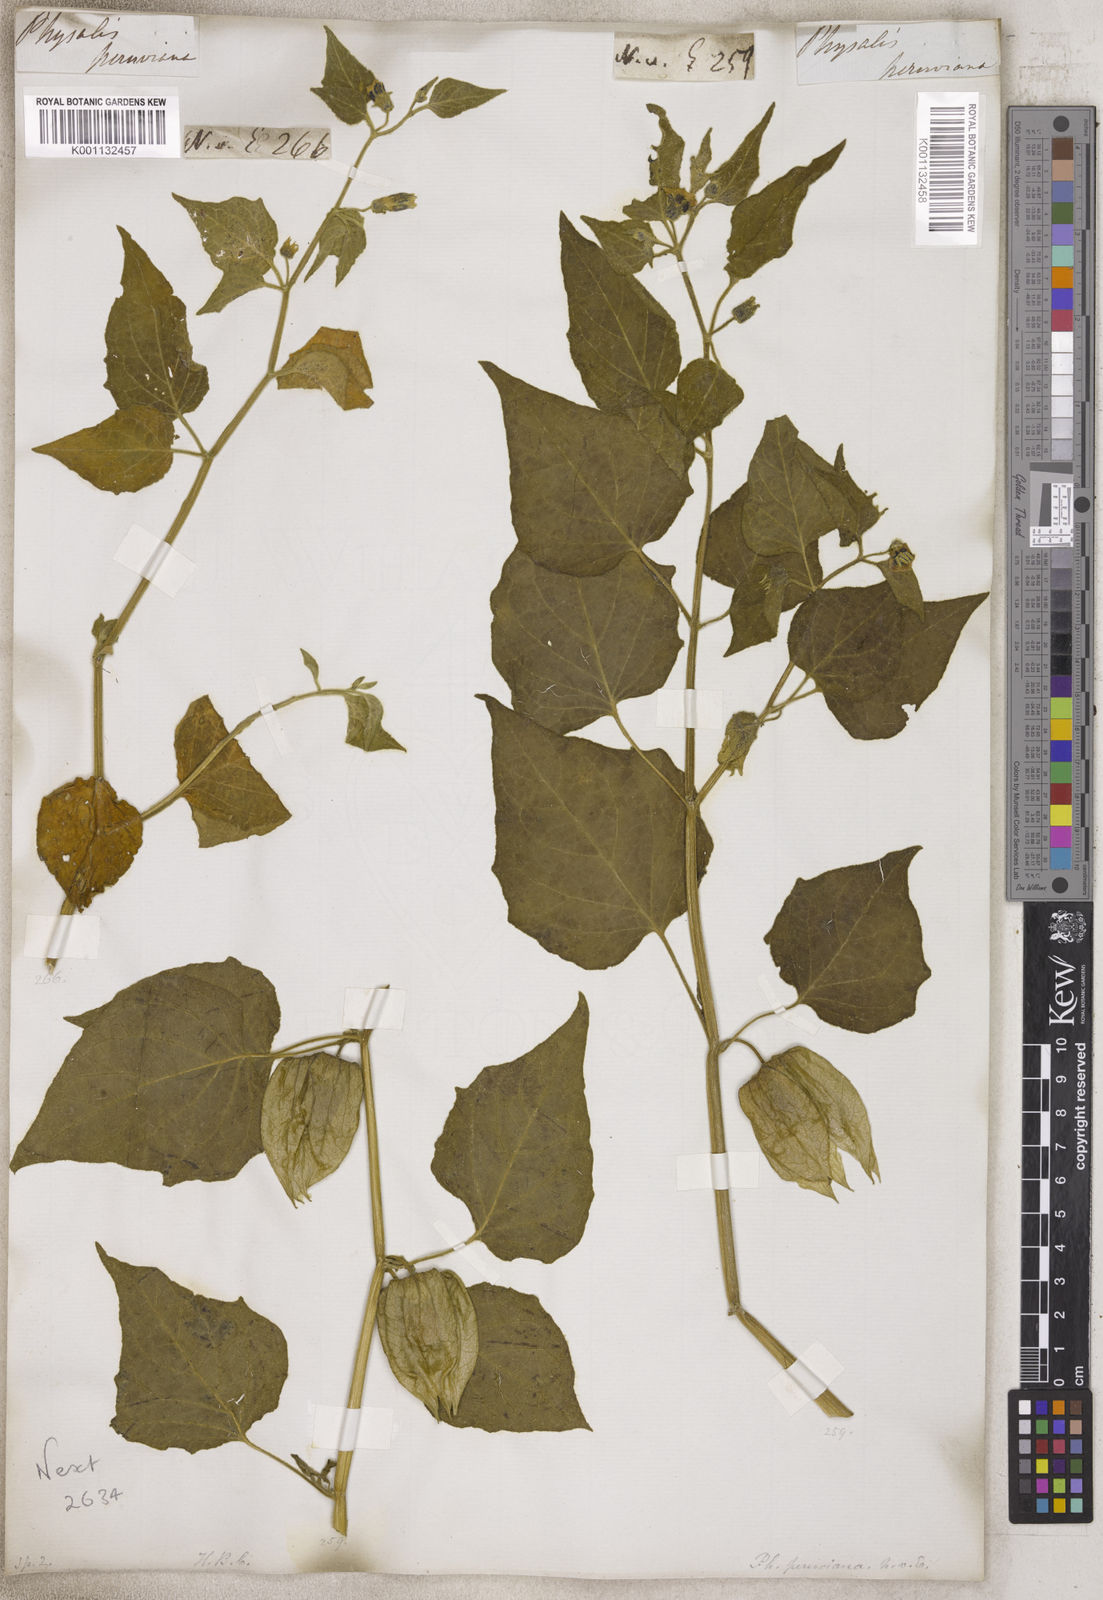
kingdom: Plantae
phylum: Tracheophyta
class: Magnoliopsida
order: Solanales
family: Solanaceae
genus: Physalis
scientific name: Physalis
